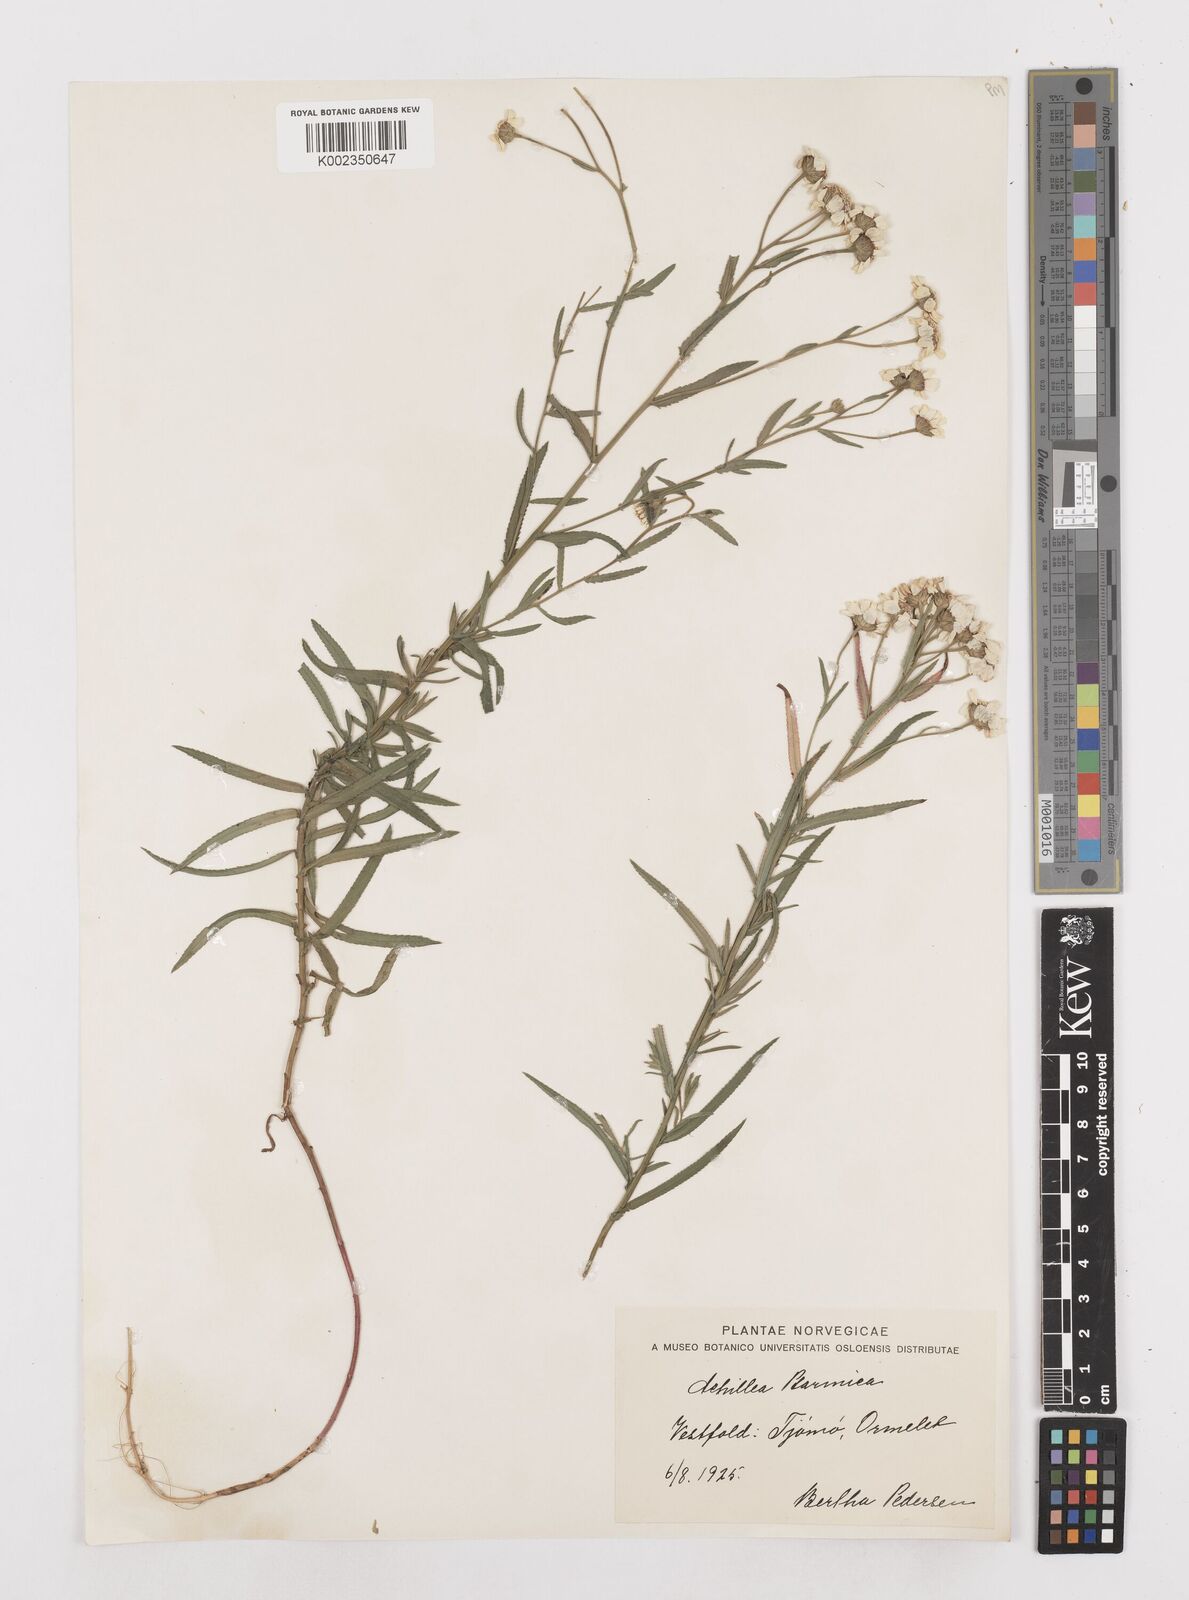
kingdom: Plantae
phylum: Tracheophyta
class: Magnoliopsida
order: Asterales
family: Asteraceae
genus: Achillea
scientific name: Achillea ptarmica
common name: Sneezeweed
